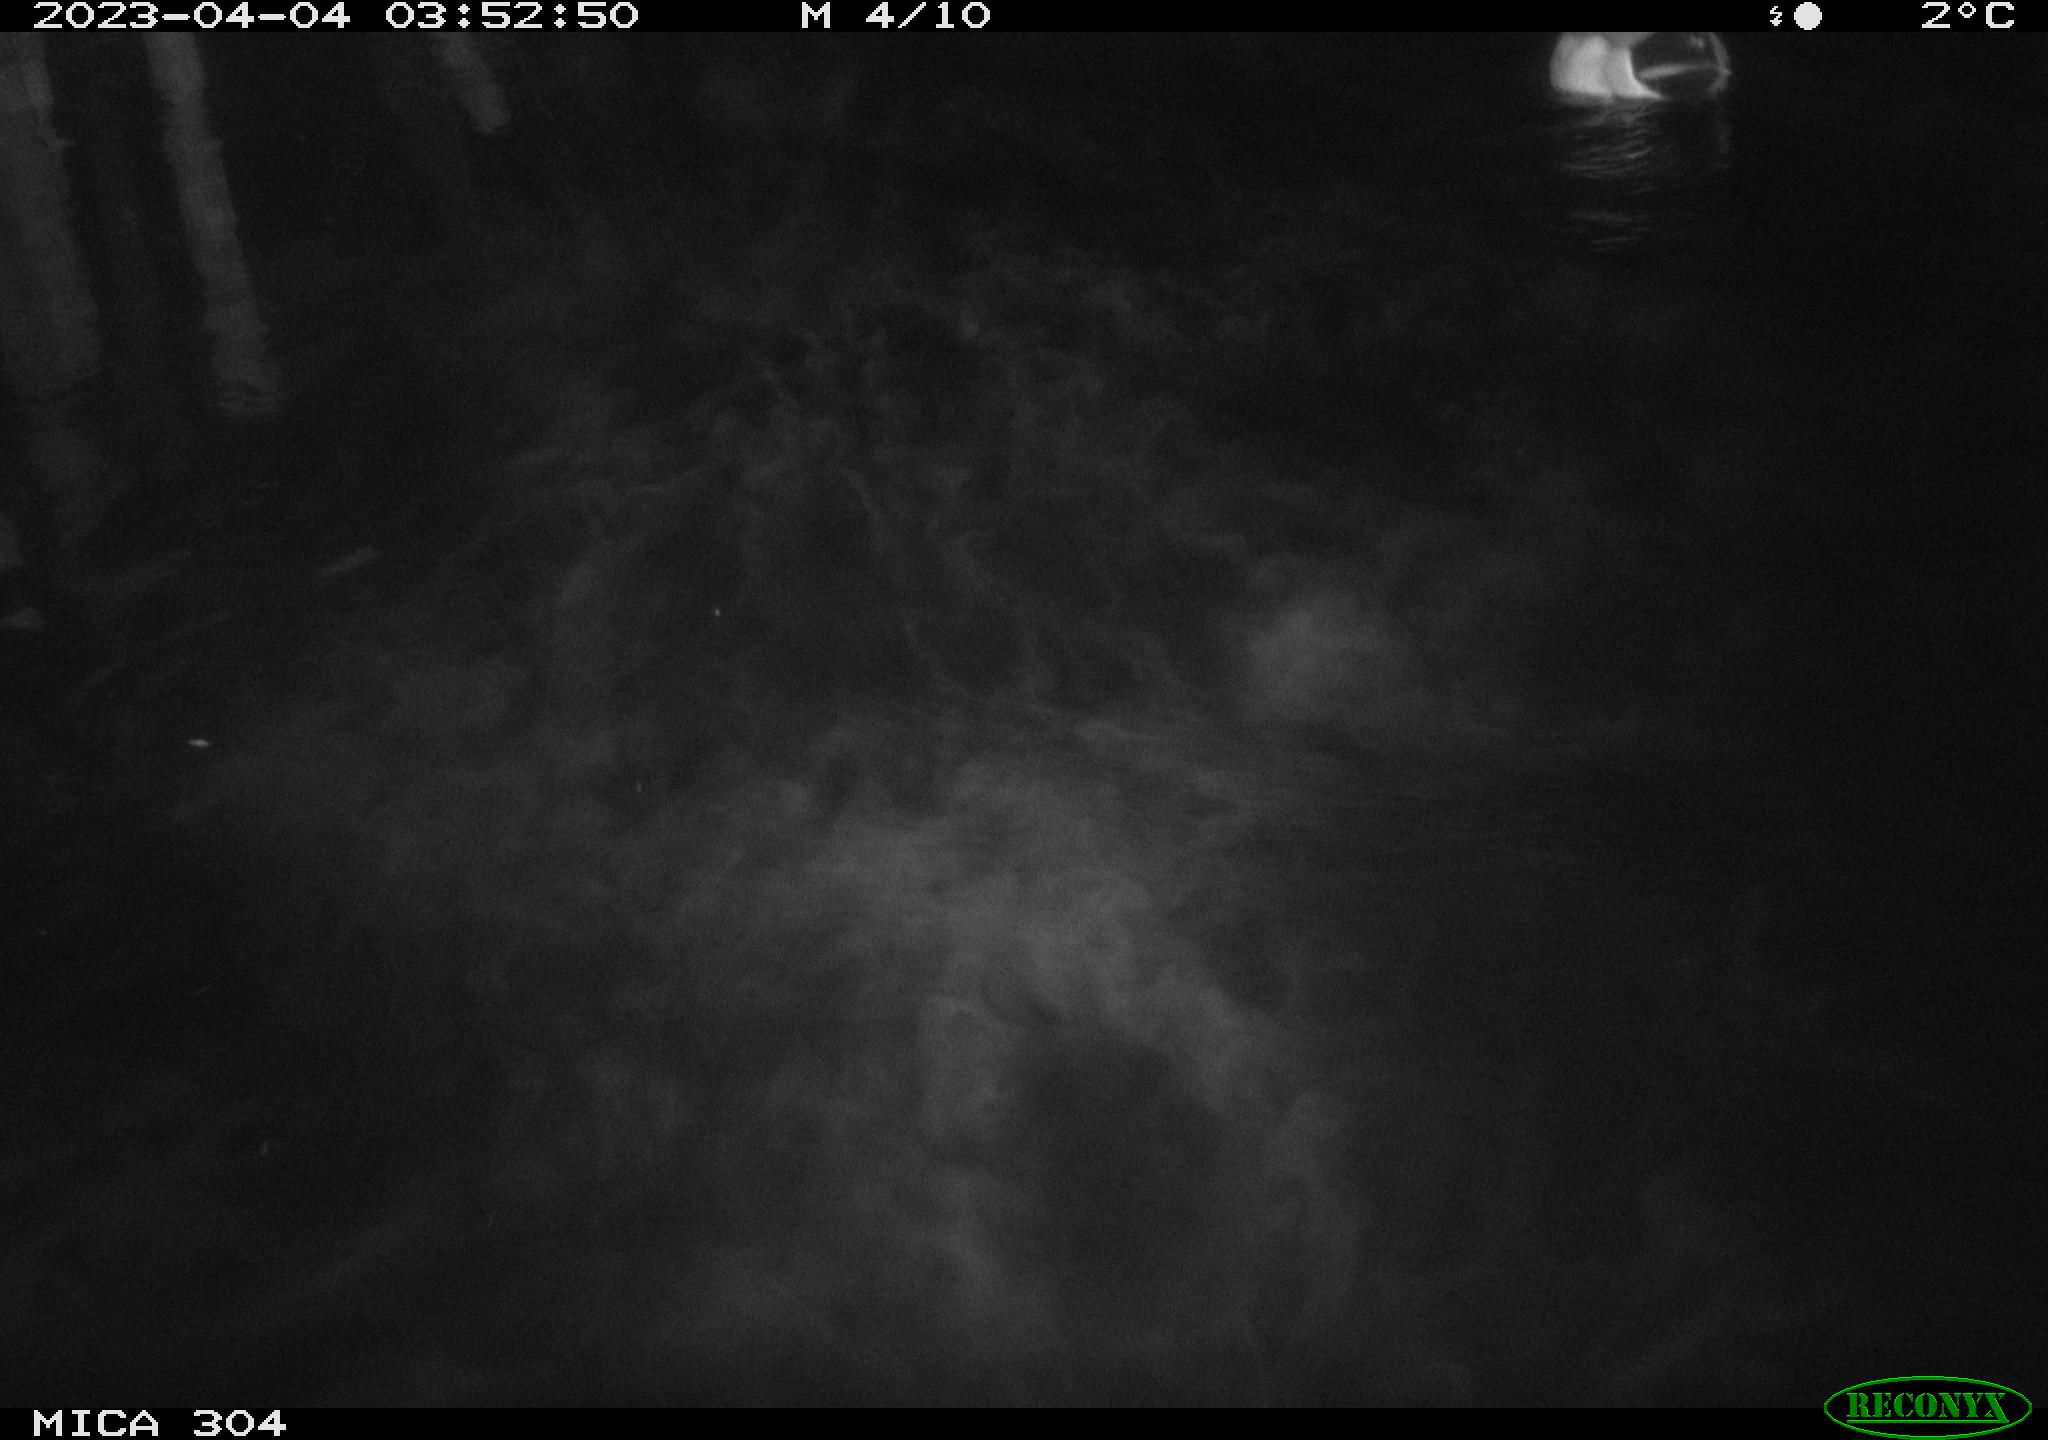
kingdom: Animalia
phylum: Chordata
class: Aves
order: Anseriformes
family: Anatidae
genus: Anas
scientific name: Anas
